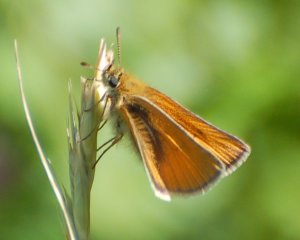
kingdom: Animalia
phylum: Arthropoda
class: Insecta
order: Lepidoptera
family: Hesperiidae
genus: Thymelicus
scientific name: Thymelicus lineola
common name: European Skipper
